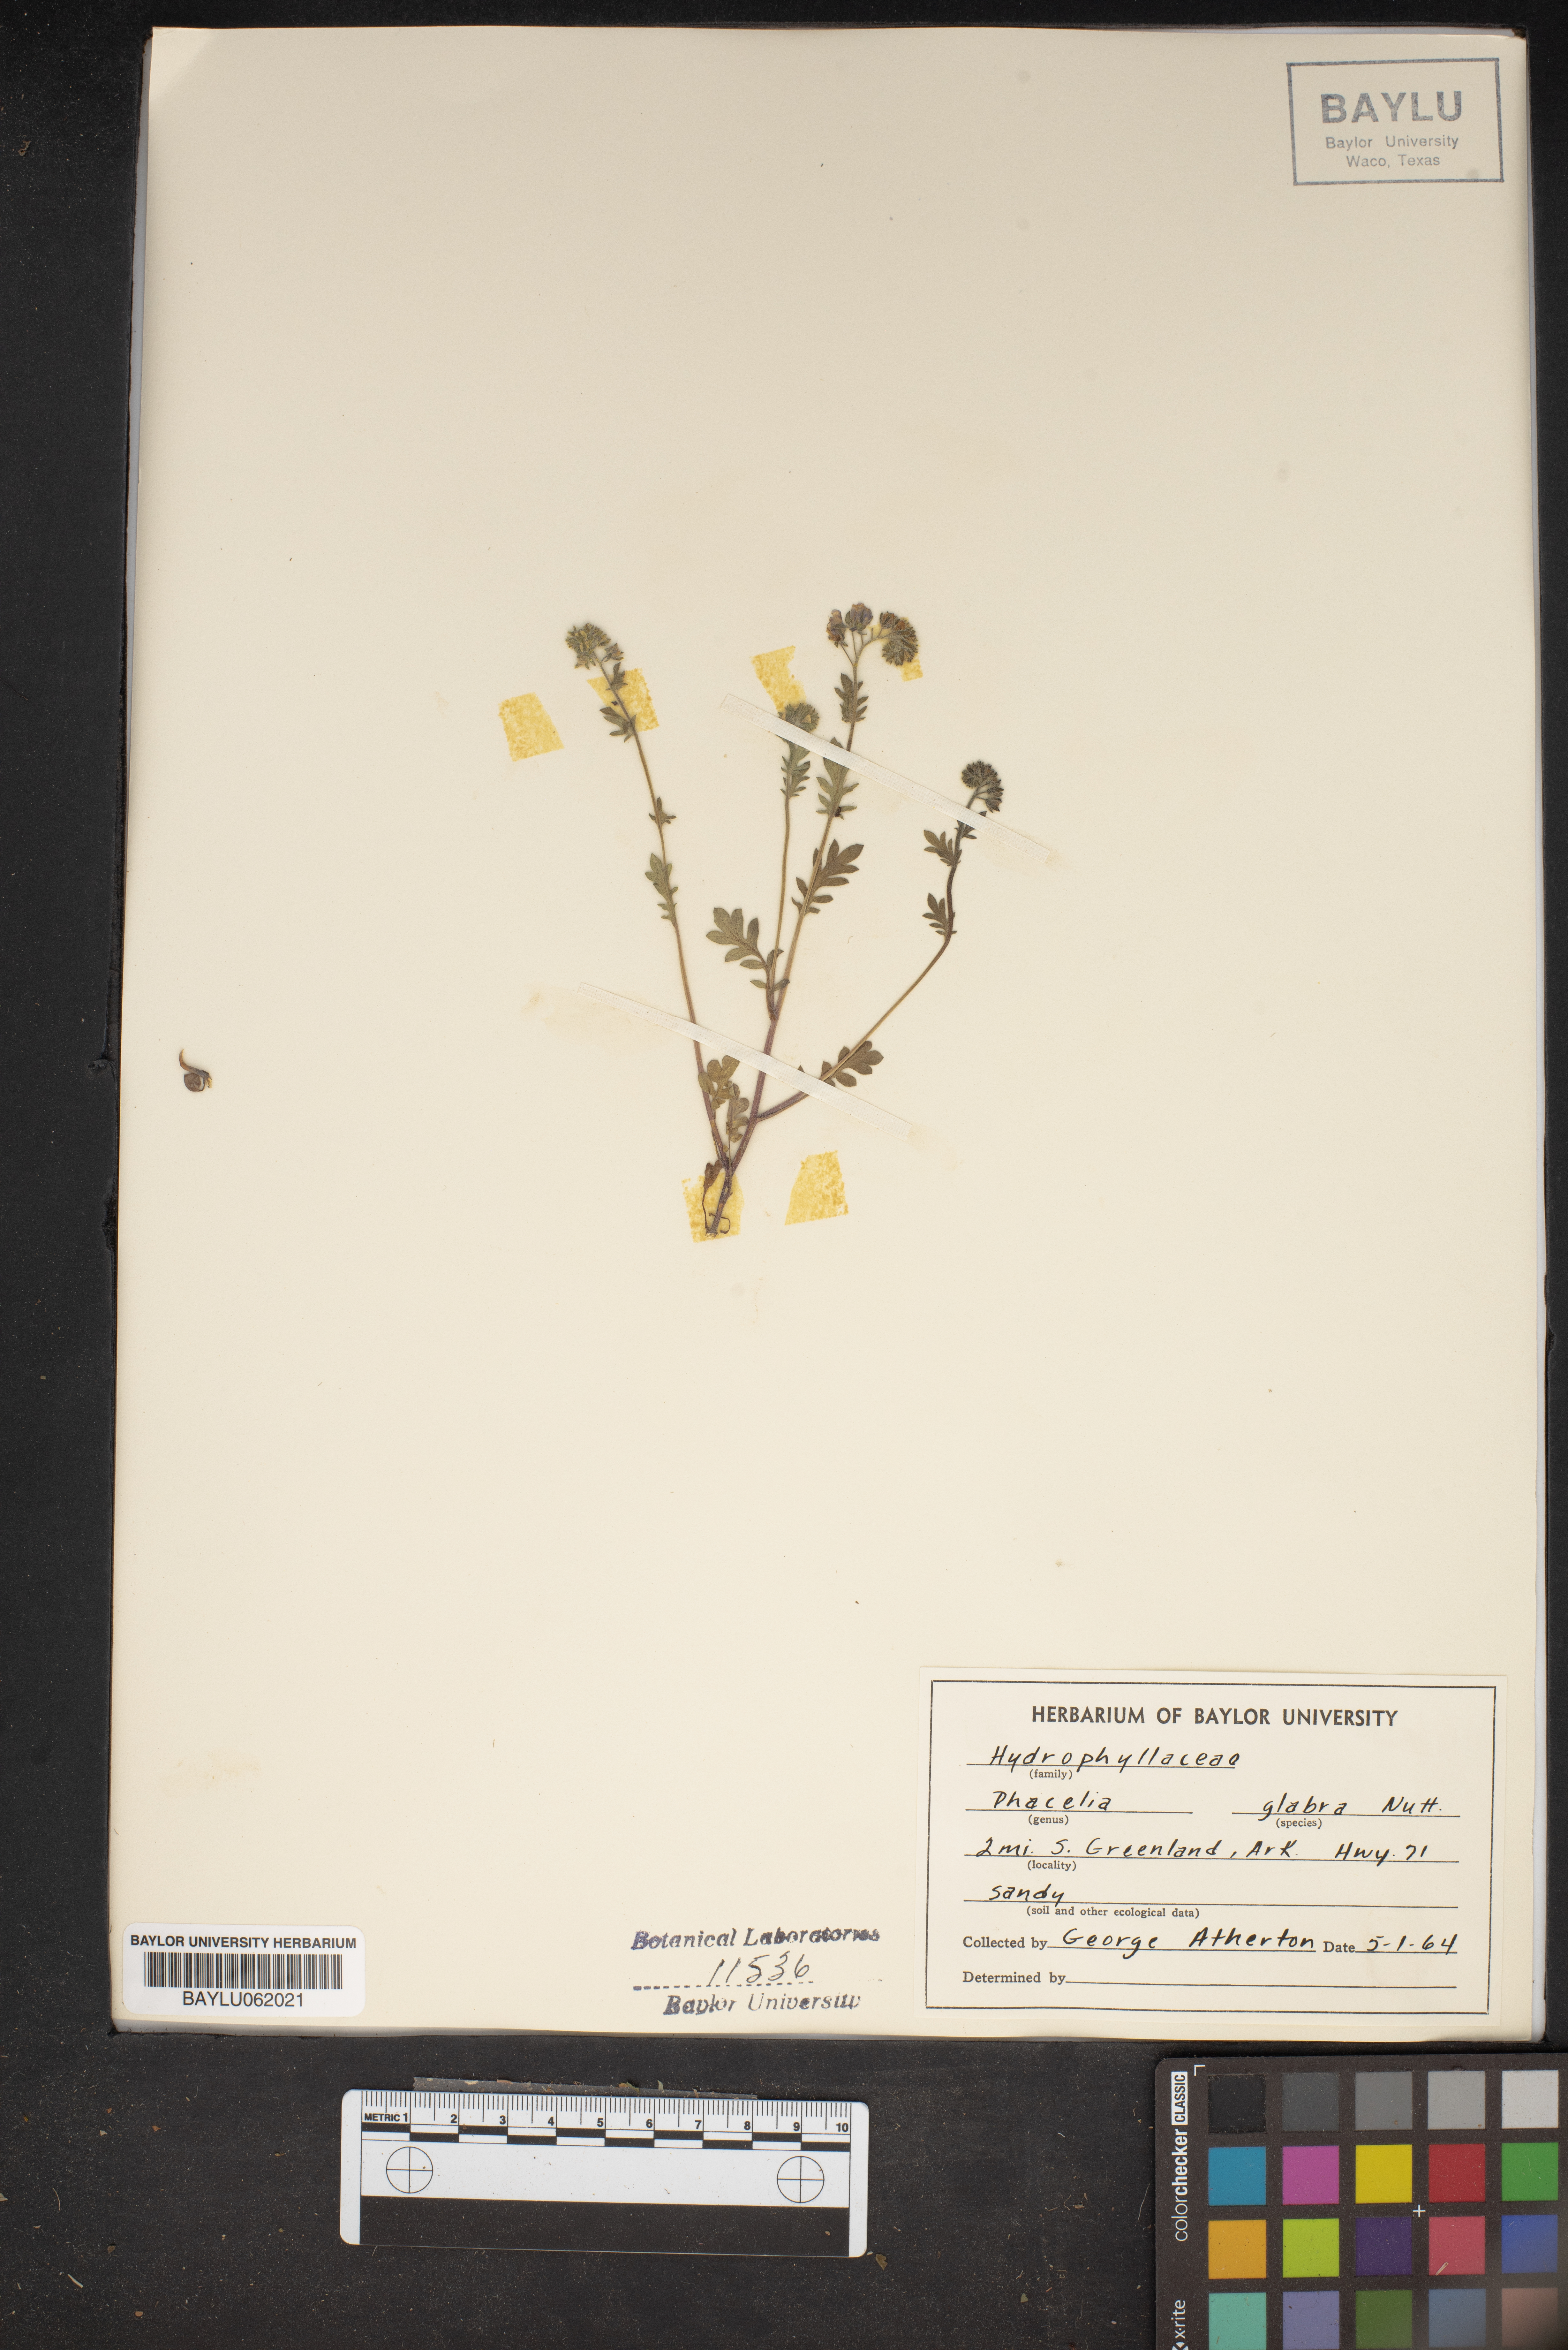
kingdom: Plantae
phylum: Tracheophyta
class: Magnoliopsida
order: Boraginales
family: Hydrophyllaceae
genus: Phacelia
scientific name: Phacelia glabra
